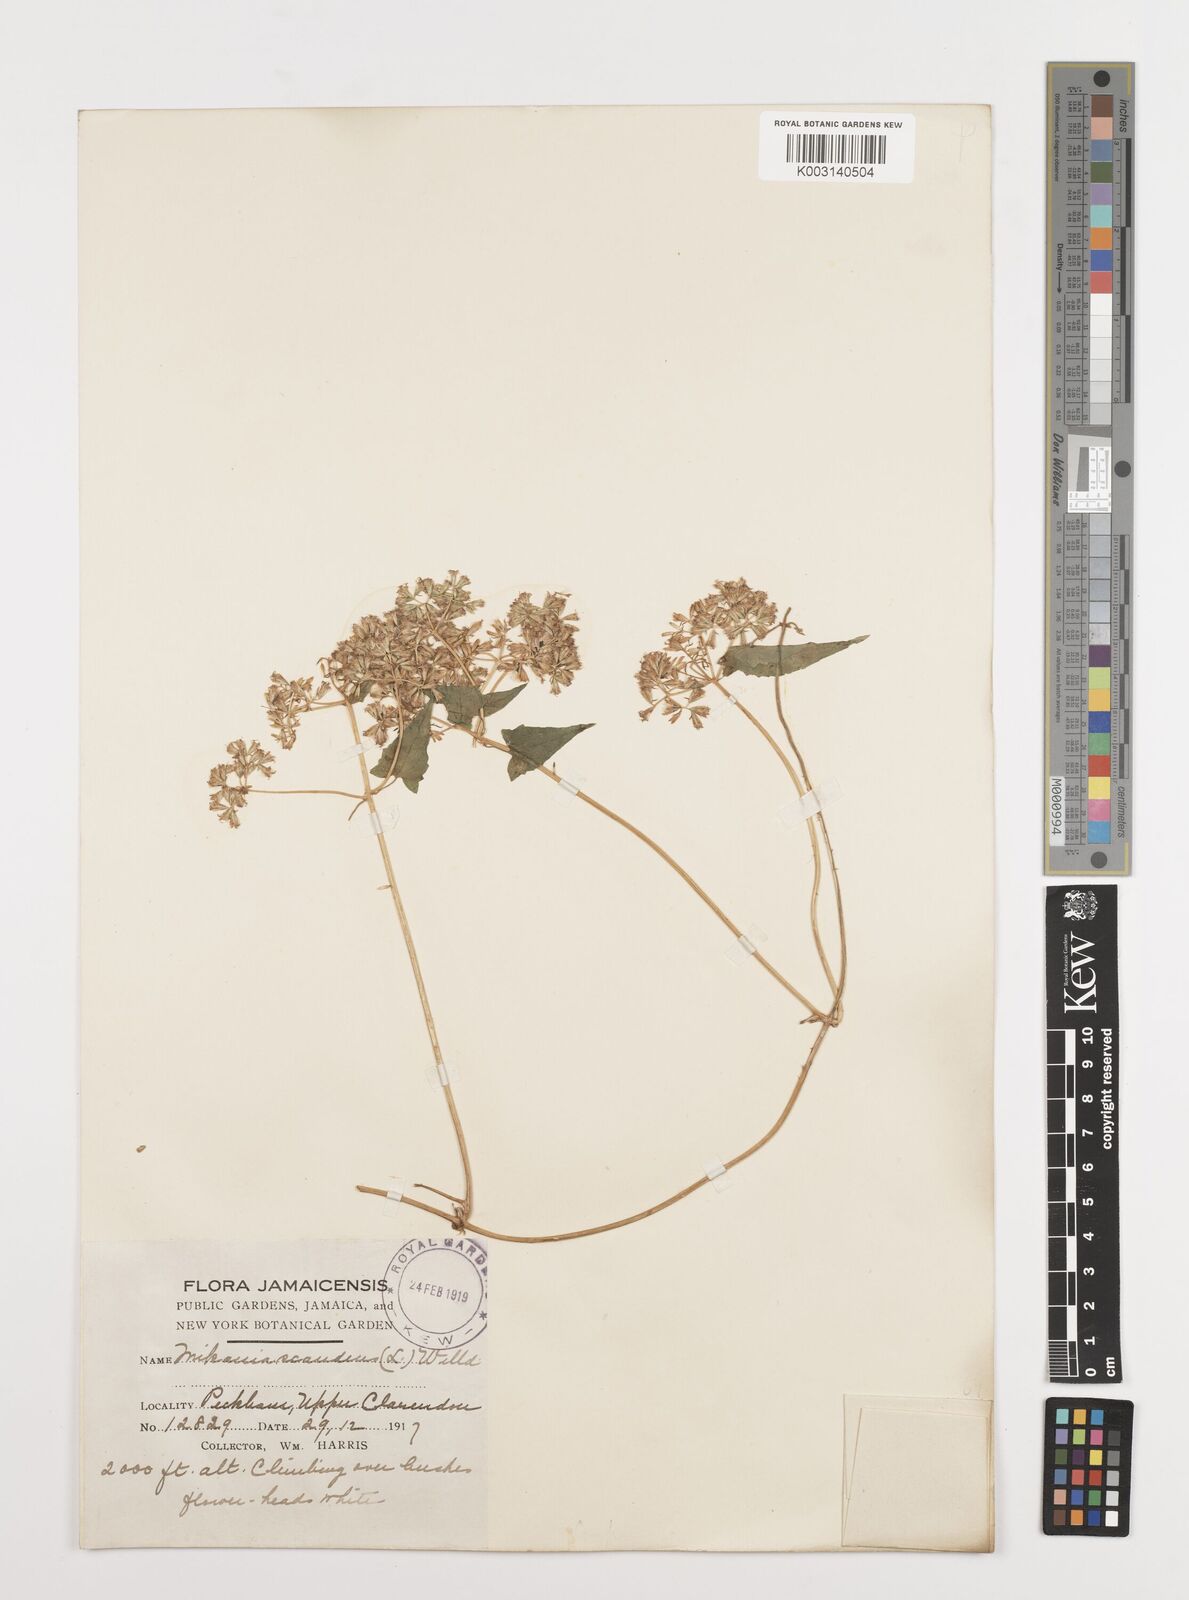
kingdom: Plantae
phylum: Tracheophyta
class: Magnoliopsida
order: Asterales
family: Asteraceae
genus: Mikania
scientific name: Mikania micrantha
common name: Mile-a-minute
